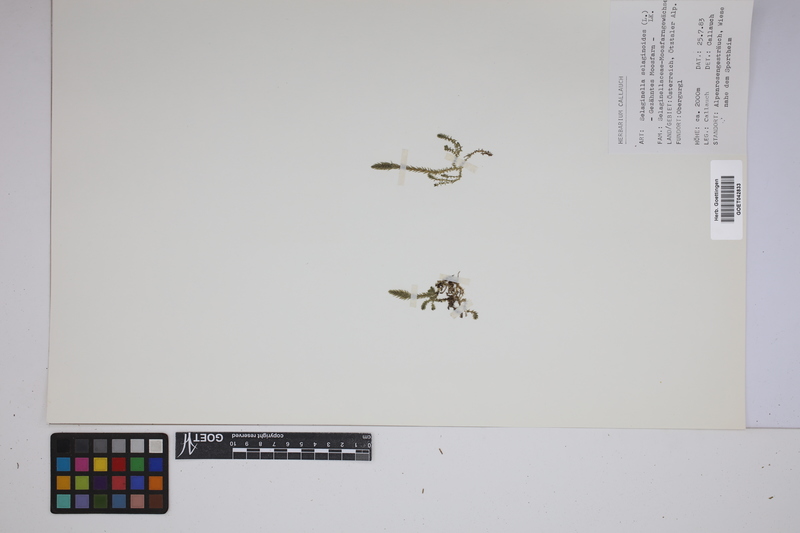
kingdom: Plantae
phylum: Tracheophyta
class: Lycopodiopsida
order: Selaginellales
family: Selaginellaceae
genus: Selaginella
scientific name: Selaginella selaginoides
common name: Prickly mountain-moss
